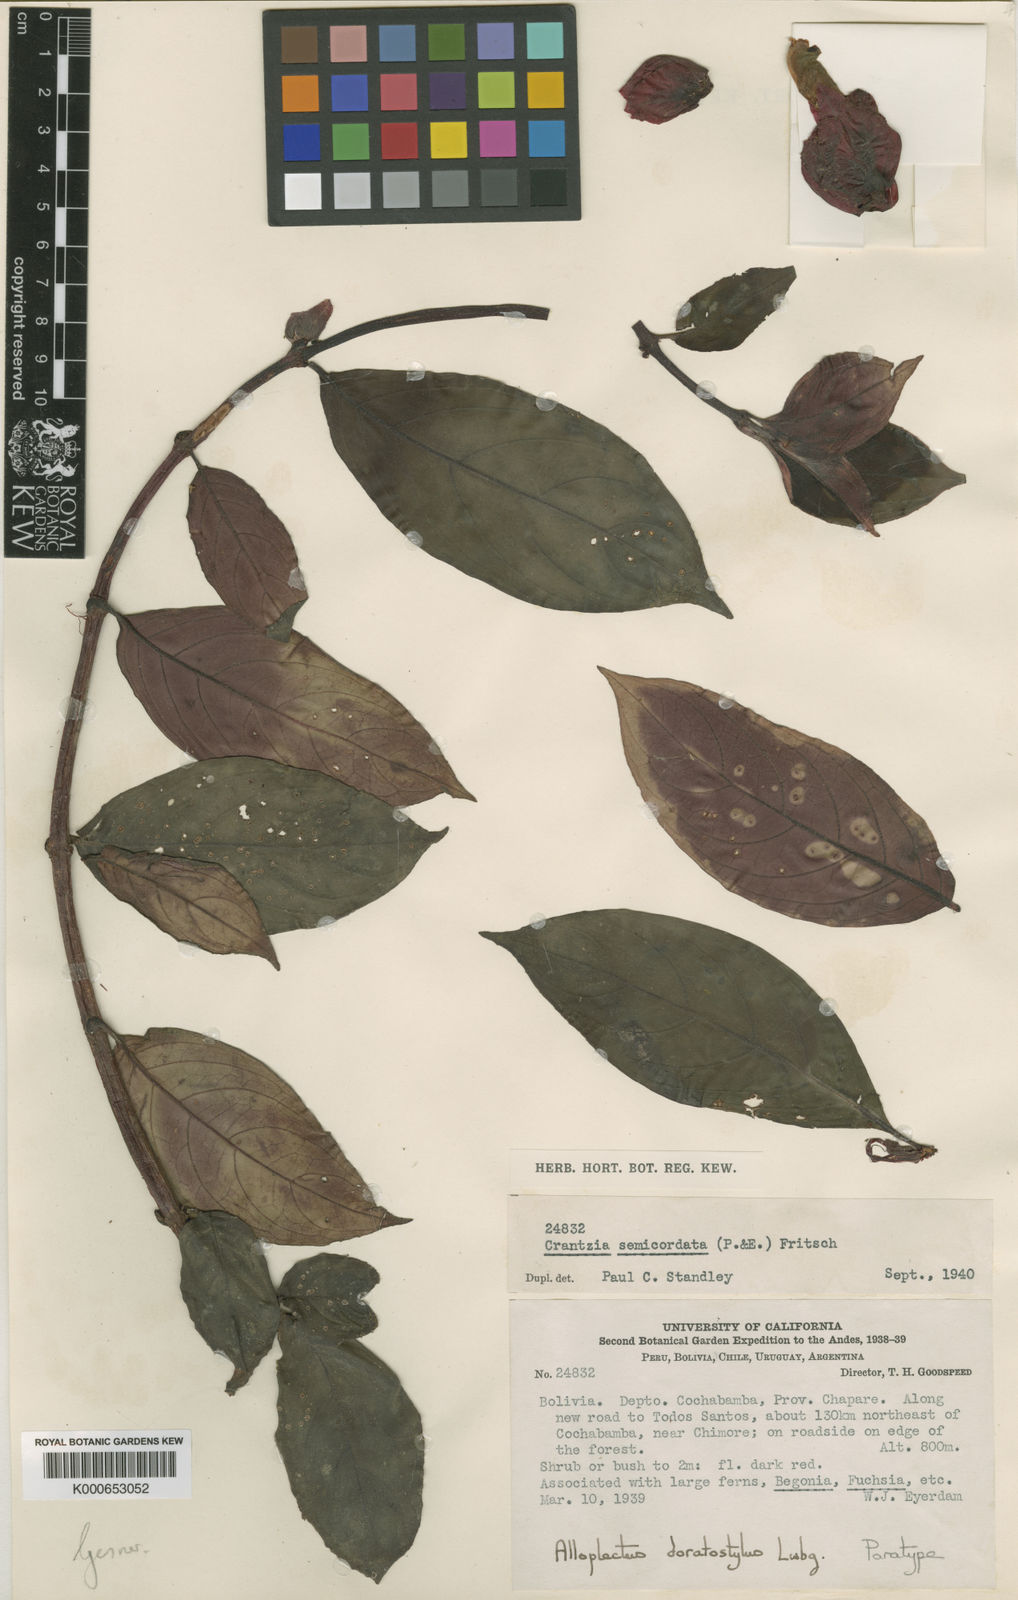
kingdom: Plantae
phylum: Tracheophyta
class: Magnoliopsida
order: Lamiales
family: Gesneriaceae
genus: Drymonia
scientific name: Drymonia doratostyla
